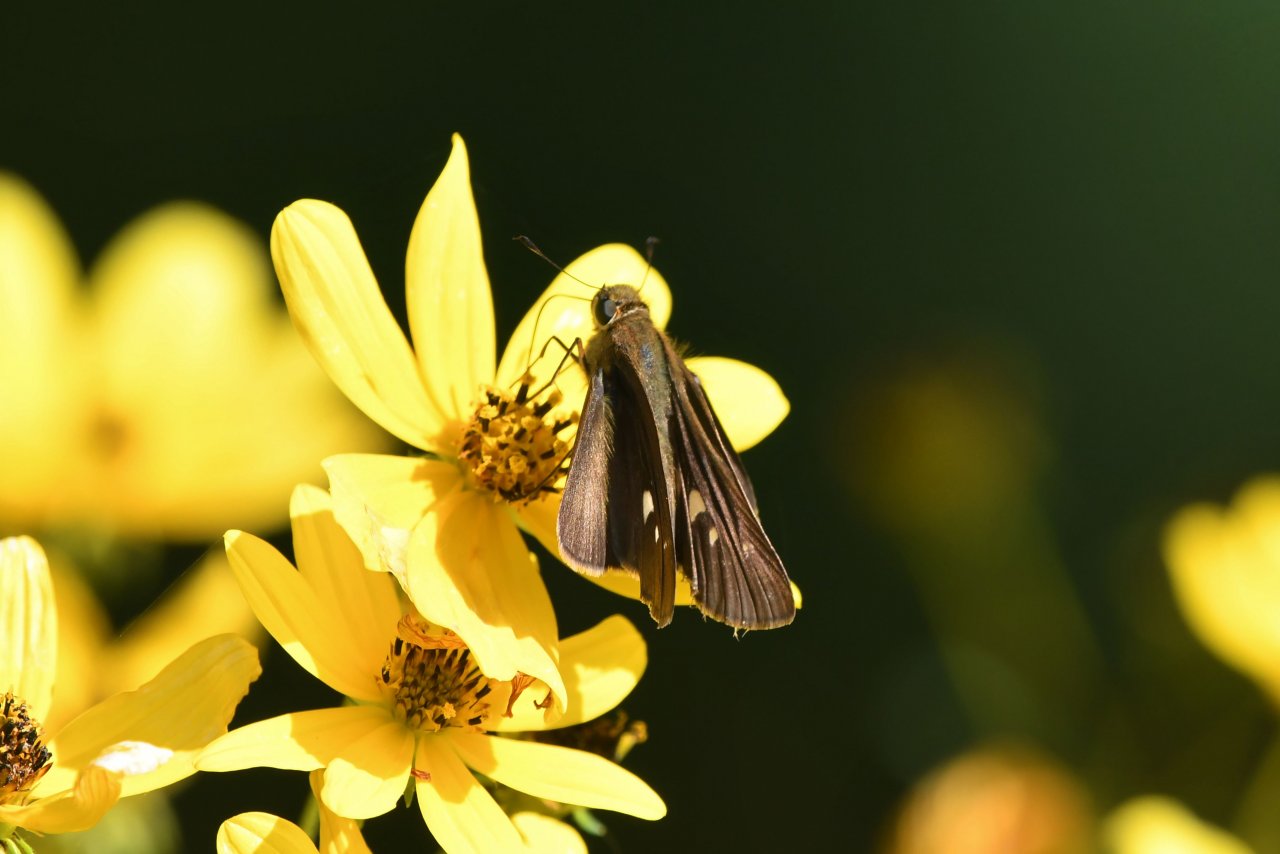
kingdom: Animalia
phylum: Arthropoda
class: Insecta
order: Lepidoptera
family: Hesperiidae
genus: Panoquina
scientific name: Panoquina ocola
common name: Ocola Skipper
